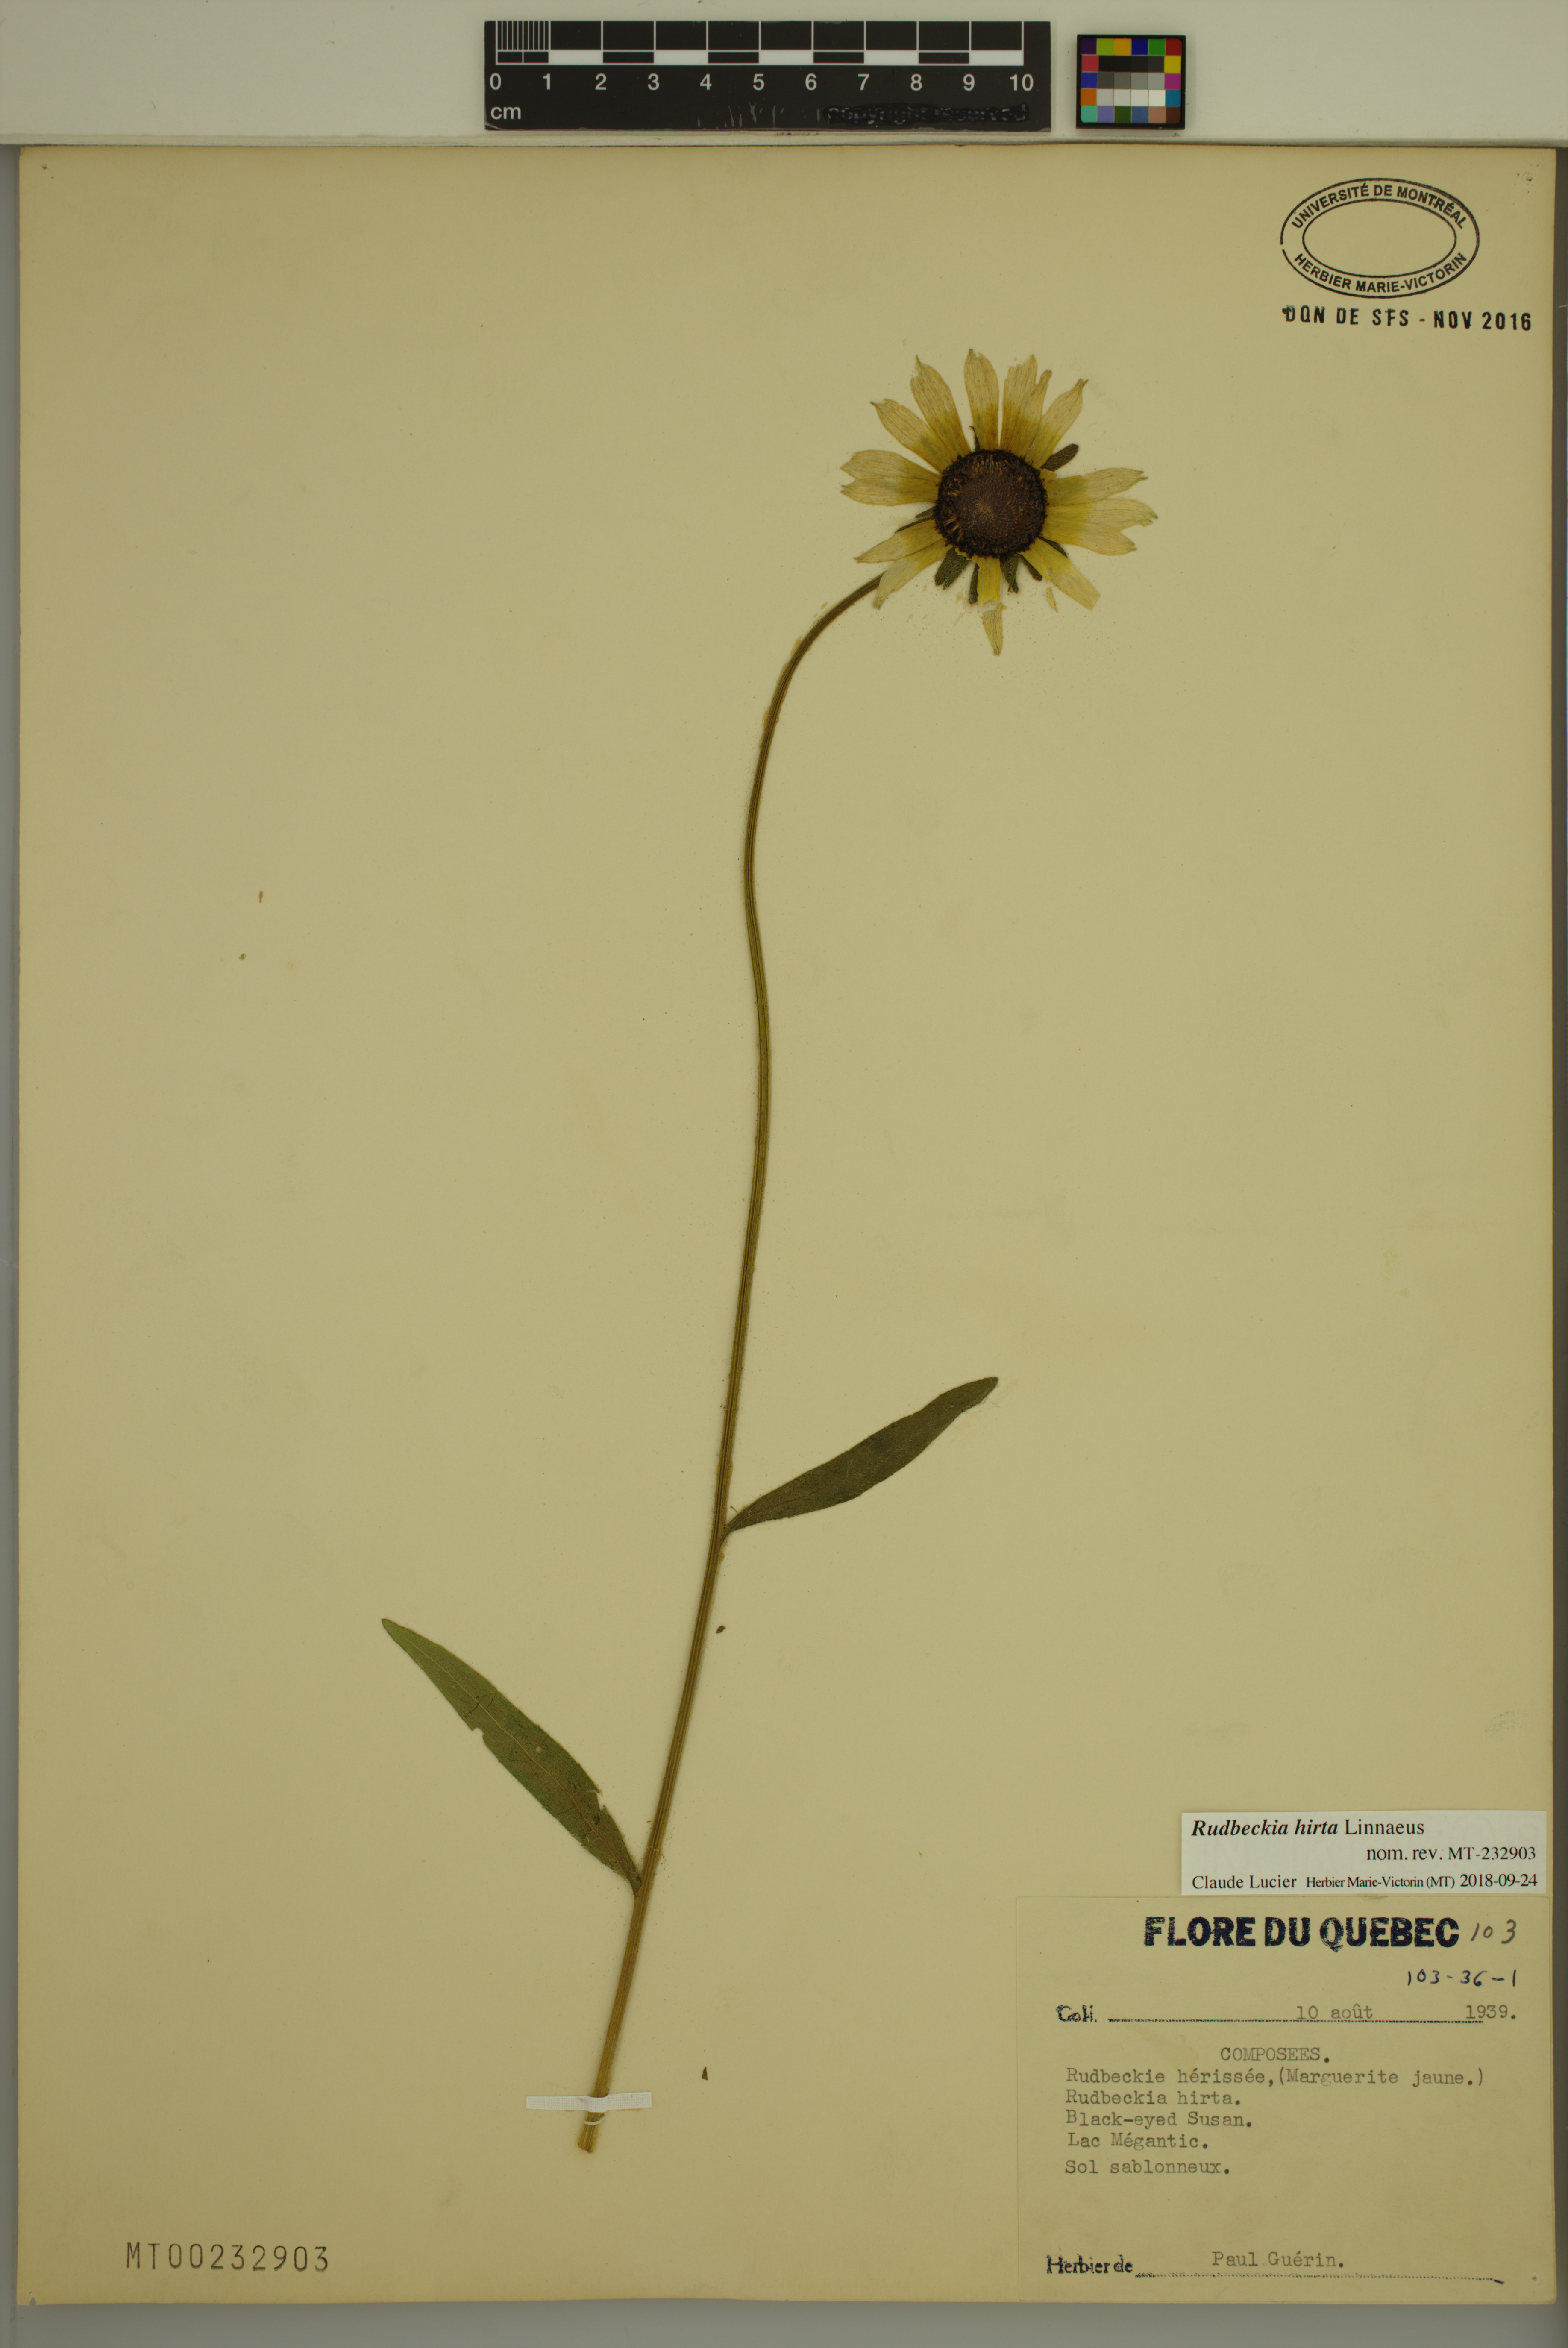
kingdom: Plantae
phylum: Tracheophyta
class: Magnoliopsida
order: Asterales
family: Asteraceae
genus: Rudbeckia
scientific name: Rudbeckia hirta
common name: Black-eyed-susan
